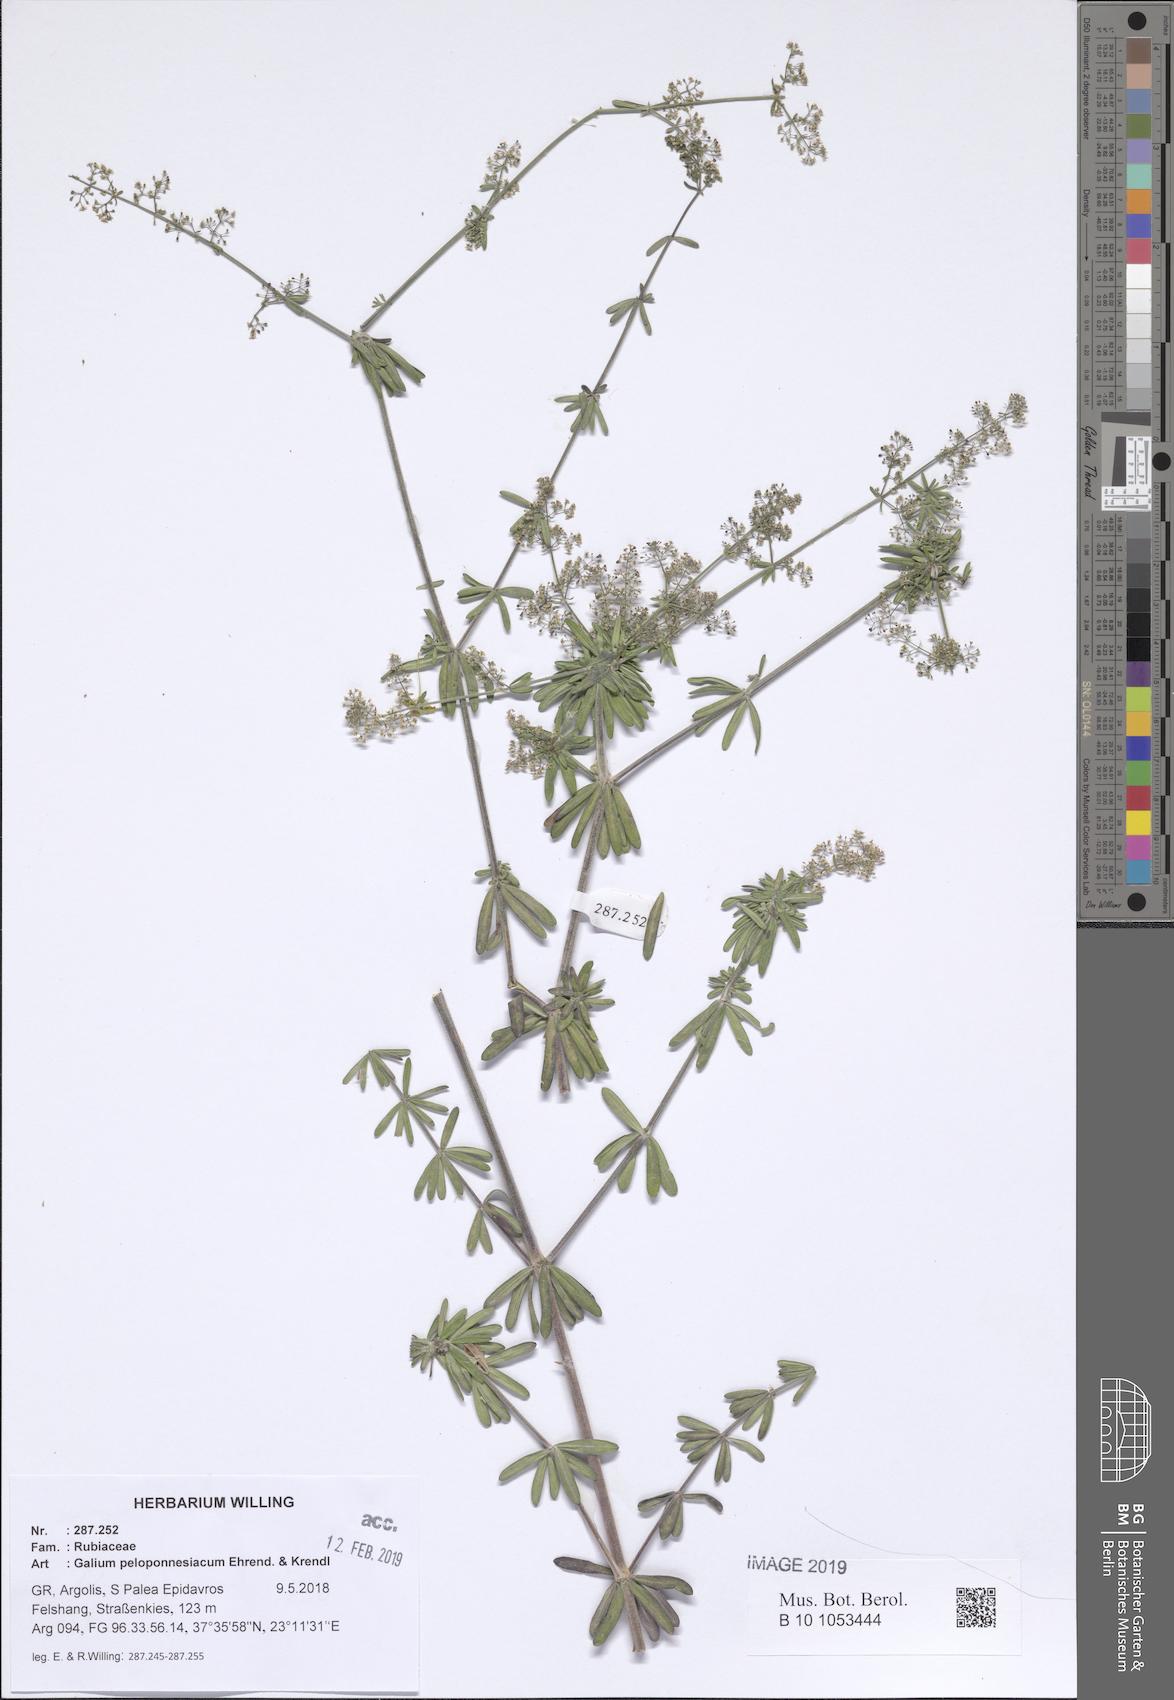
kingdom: Plantae
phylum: Tracheophyta
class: Magnoliopsida
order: Gentianales
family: Rubiaceae
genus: Galium
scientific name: Galium peloponnesiacum
